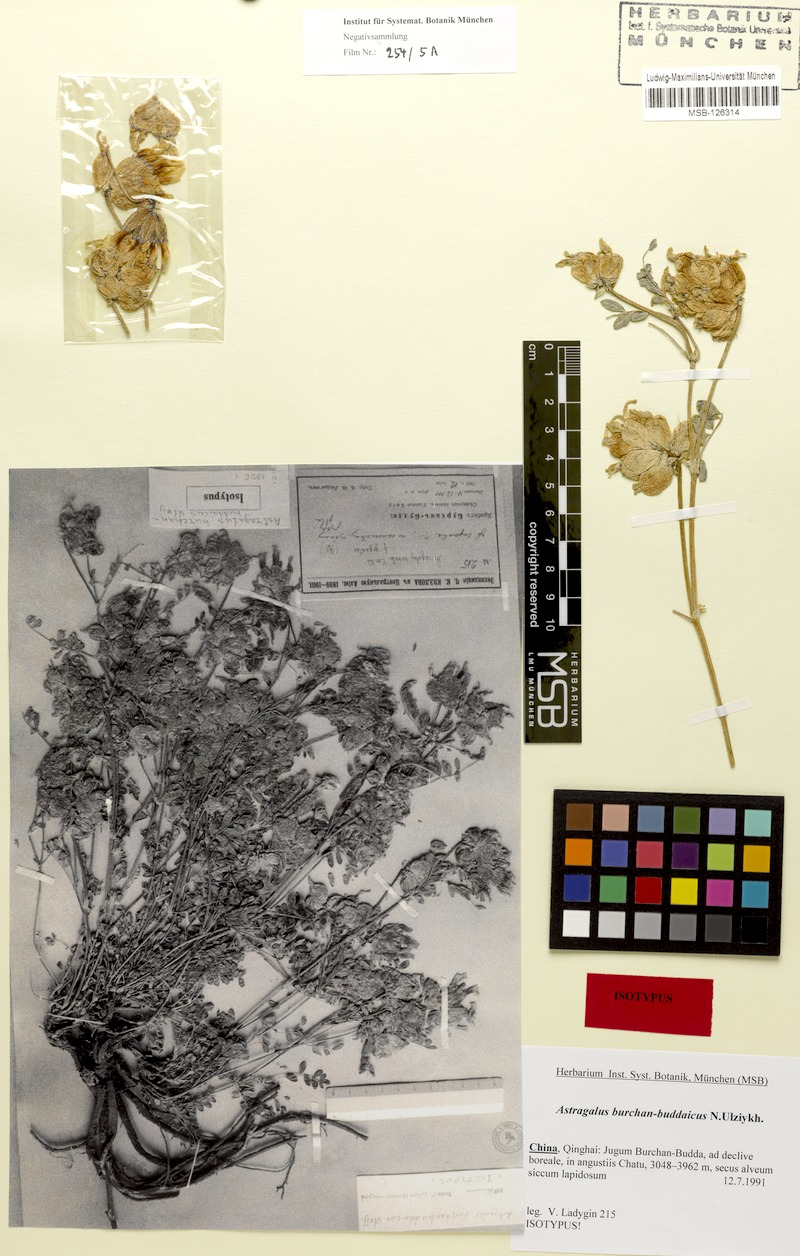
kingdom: Plantae
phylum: Tracheophyta
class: Magnoliopsida
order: Fabales
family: Fabaceae
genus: Astragalus
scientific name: Astragalus burchan-buddaicus
